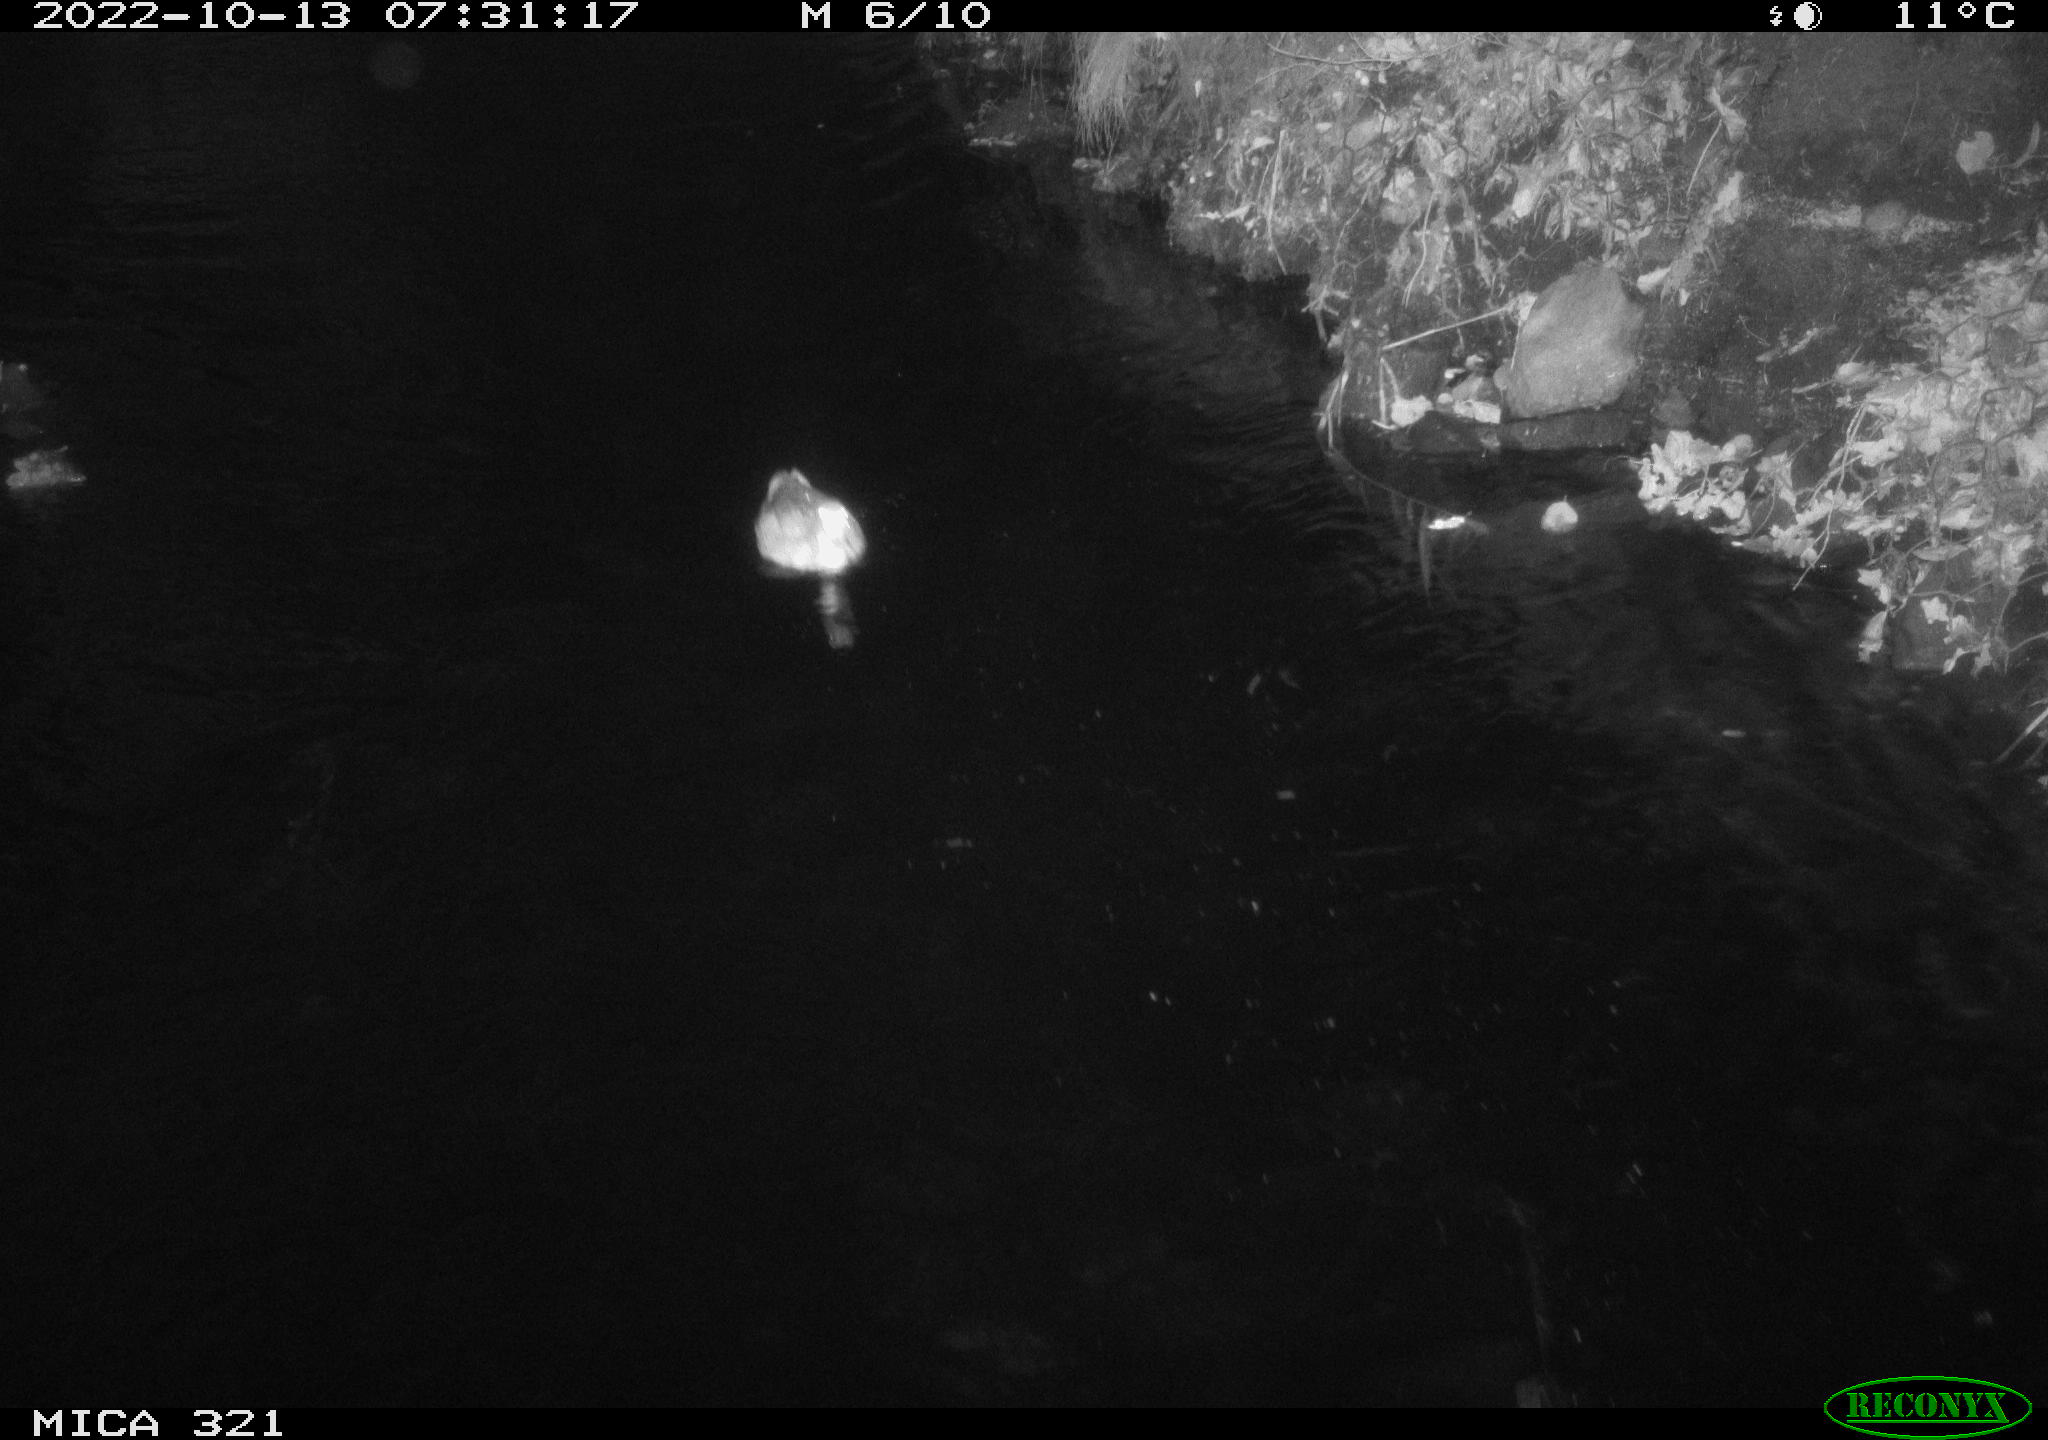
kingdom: Animalia
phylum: Chordata
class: Mammalia
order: Rodentia
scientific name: Rodentia
